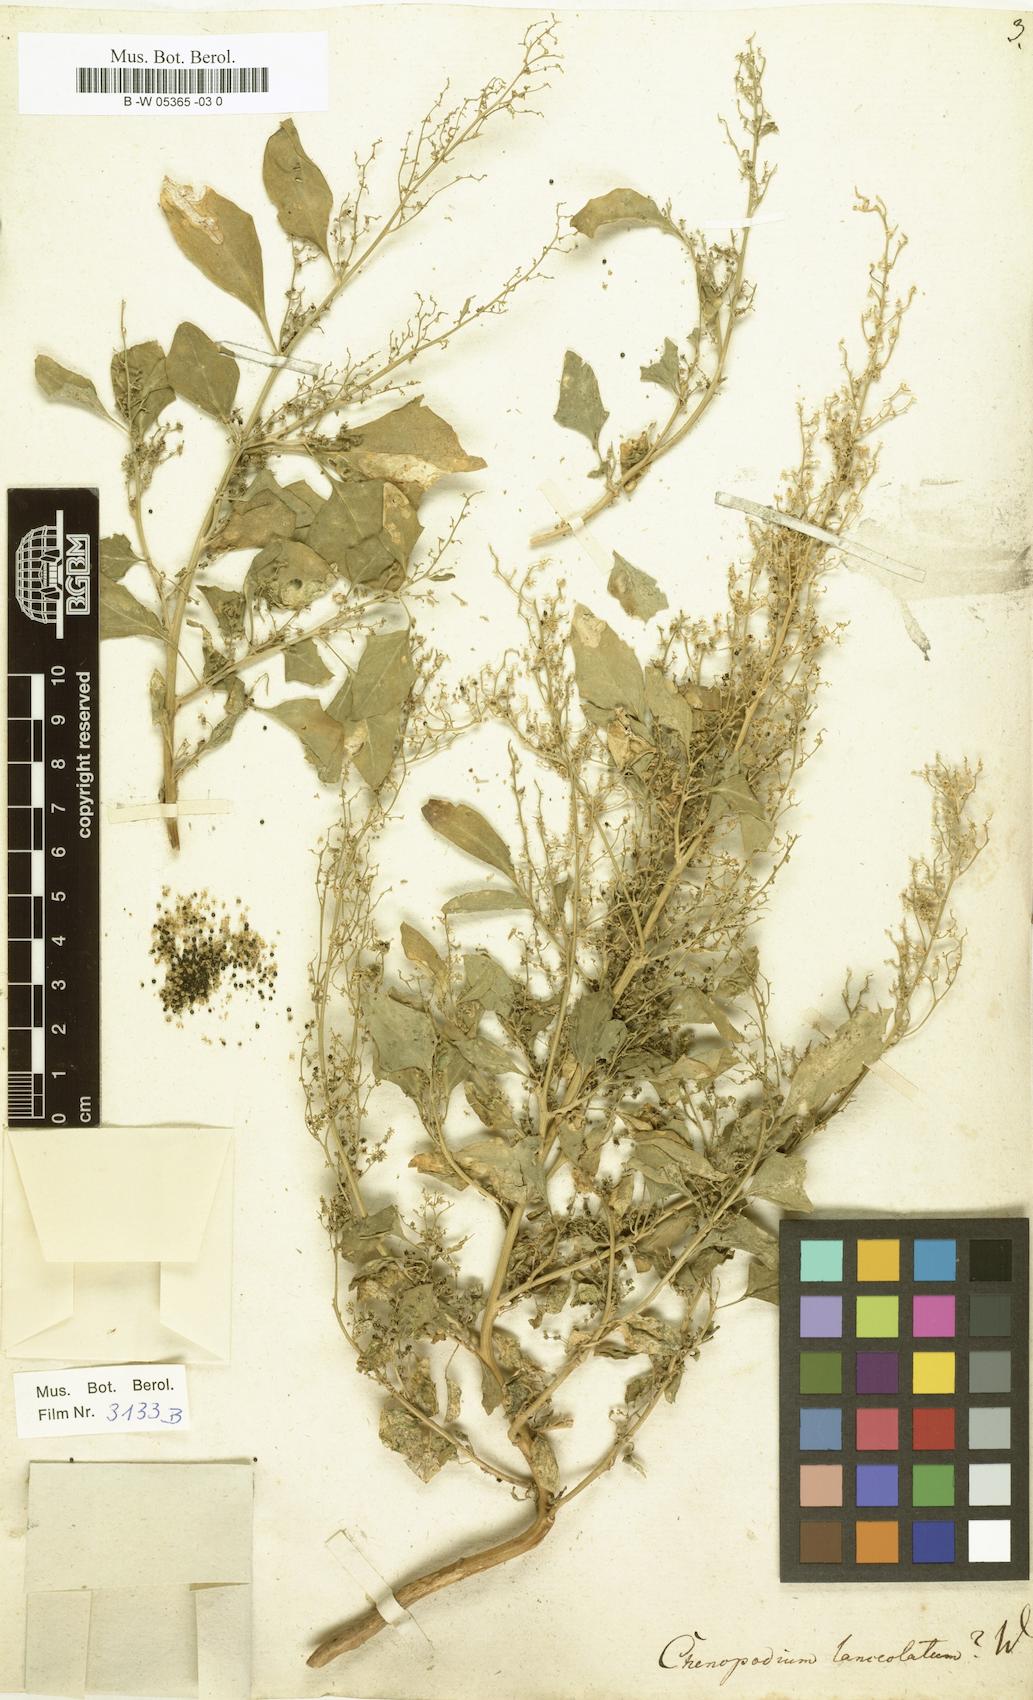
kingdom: Plantae
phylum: Tracheophyta
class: Magnoliopsida
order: Caryophyllales
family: Amaranthaceae
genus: Chenopodium
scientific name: Chenopodium album
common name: Fat-hen
